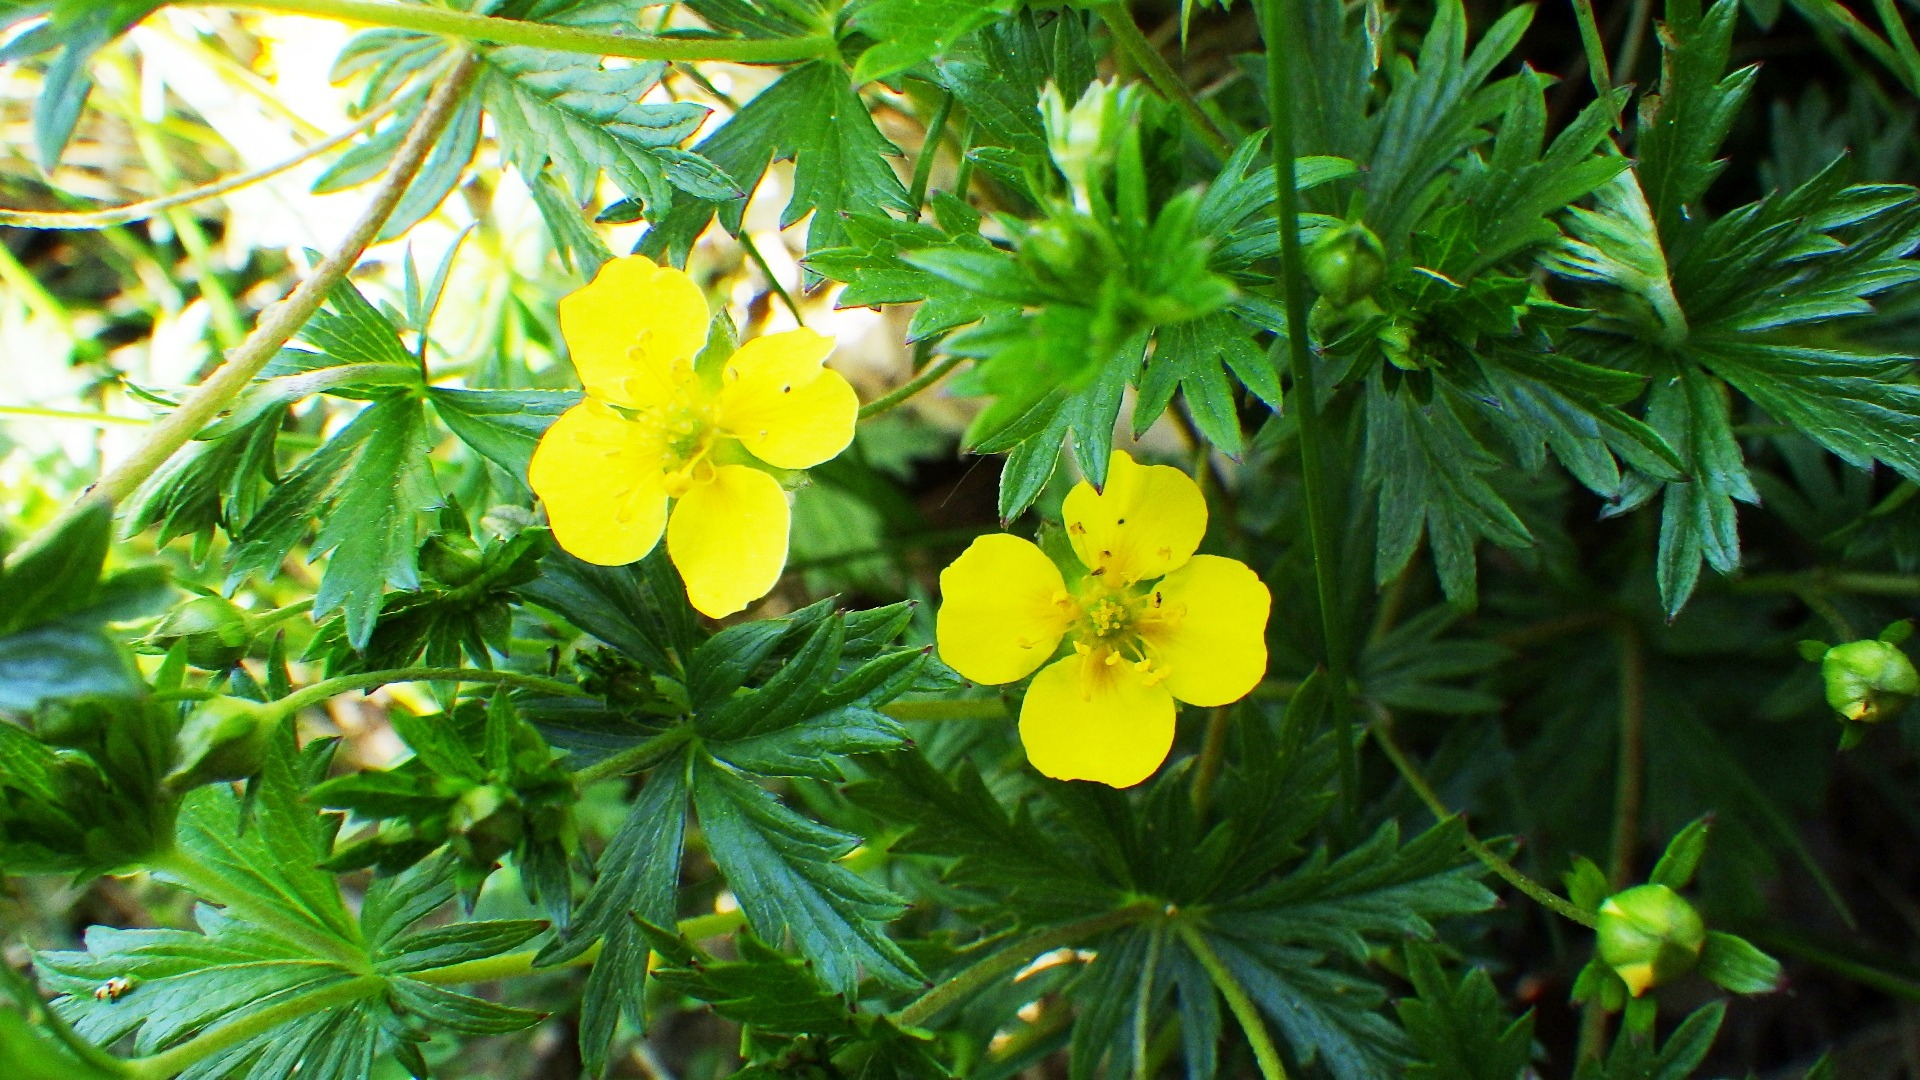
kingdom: Plantae
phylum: Tracheophyta
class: Magnoliopsida
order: Rosales
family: Rosaceae
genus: Potentilla
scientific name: Potentilla erecta
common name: Tormentil
